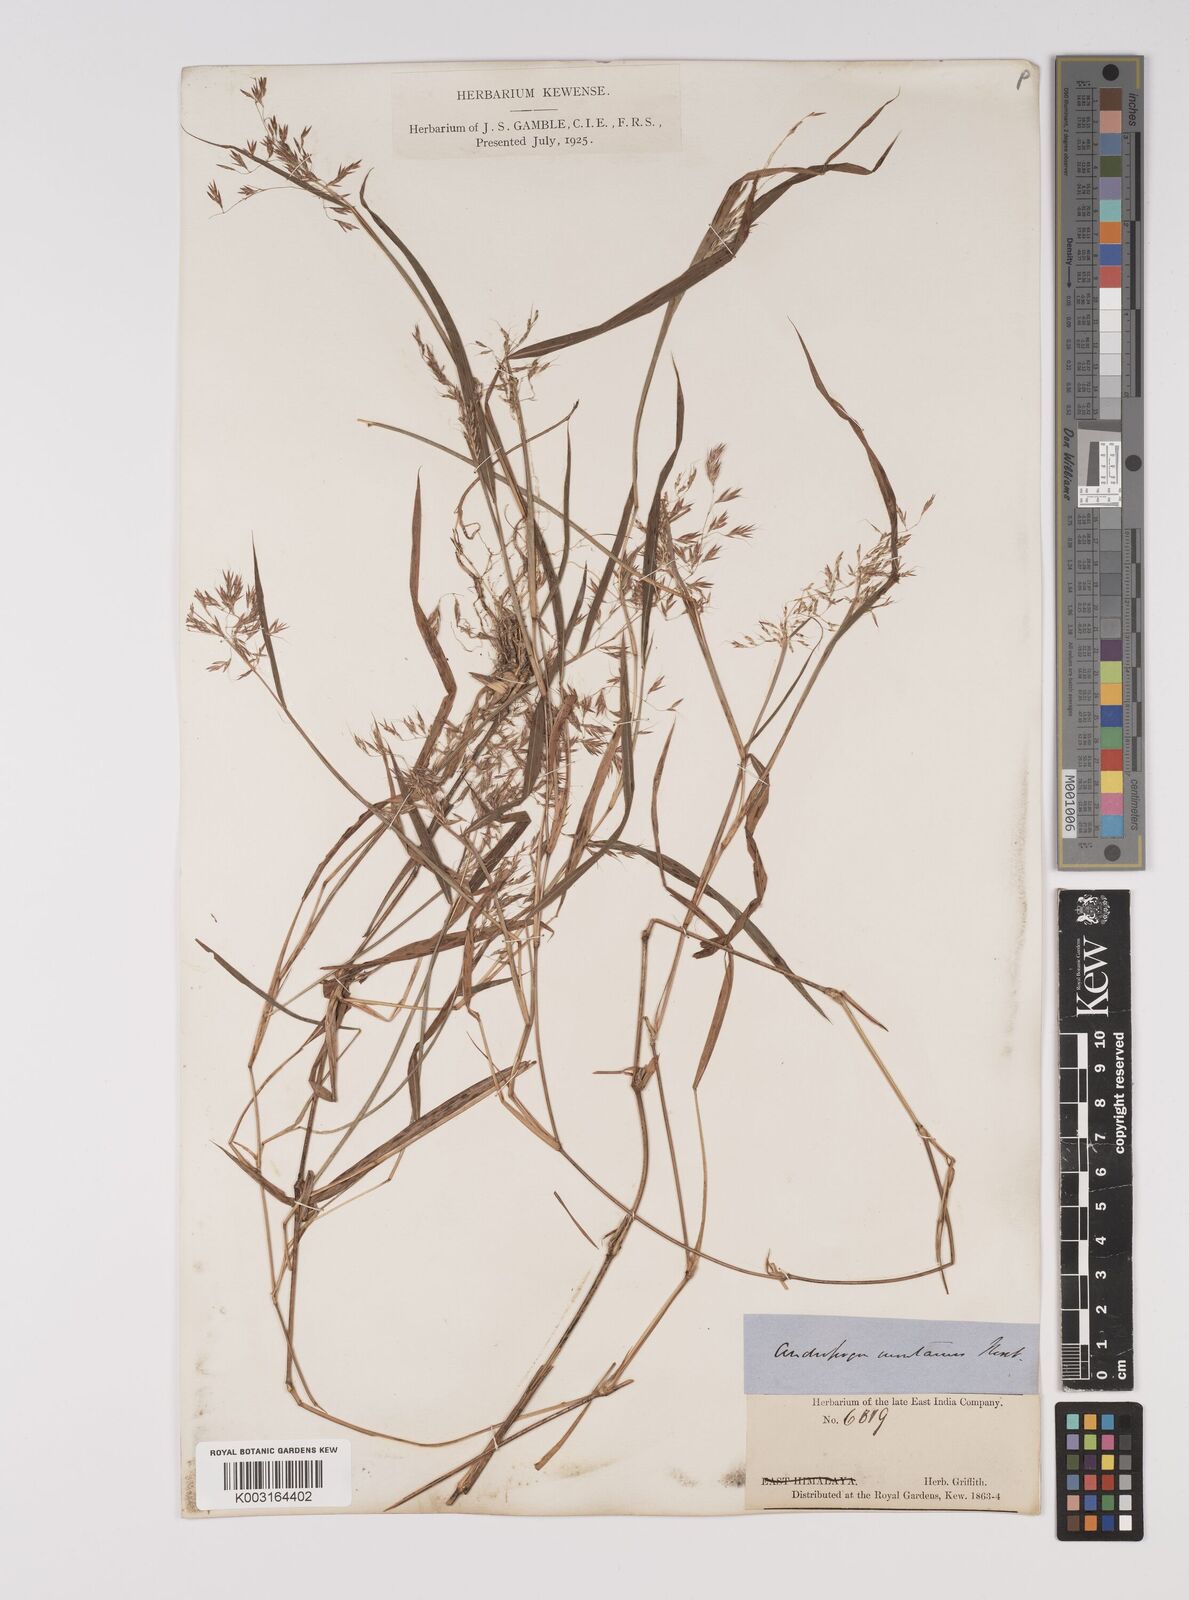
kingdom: Plantae
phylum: Tracheophyta
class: Liliopsida
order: Poales
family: Poaceae
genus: Capillipedium
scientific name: Capillipedium assimile
